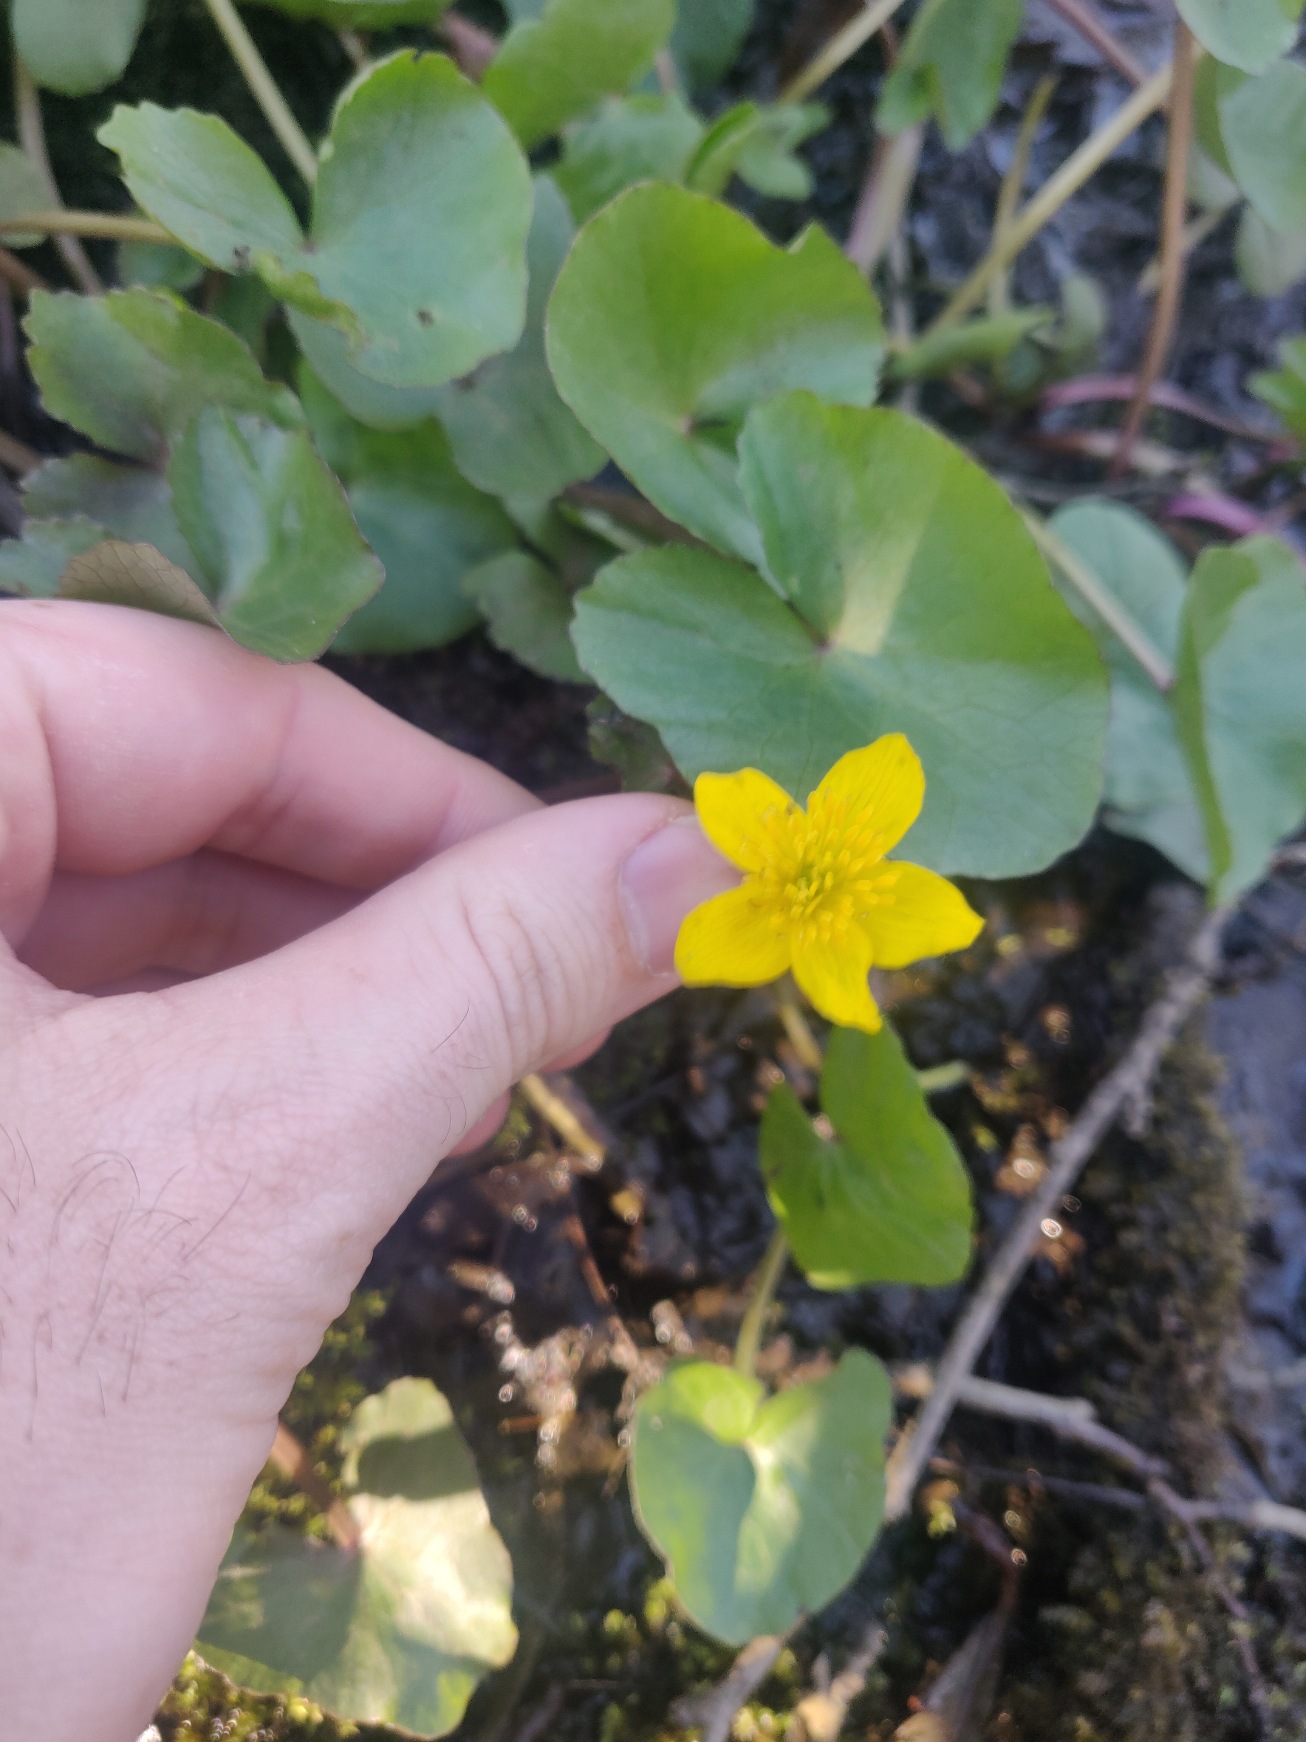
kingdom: Plantae
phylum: Tracheophyta
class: Magnoliopsida
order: Ranunculales
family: Ranunculaceae
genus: Caltha
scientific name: Caltha palustris
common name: Eng-kabbeleje
